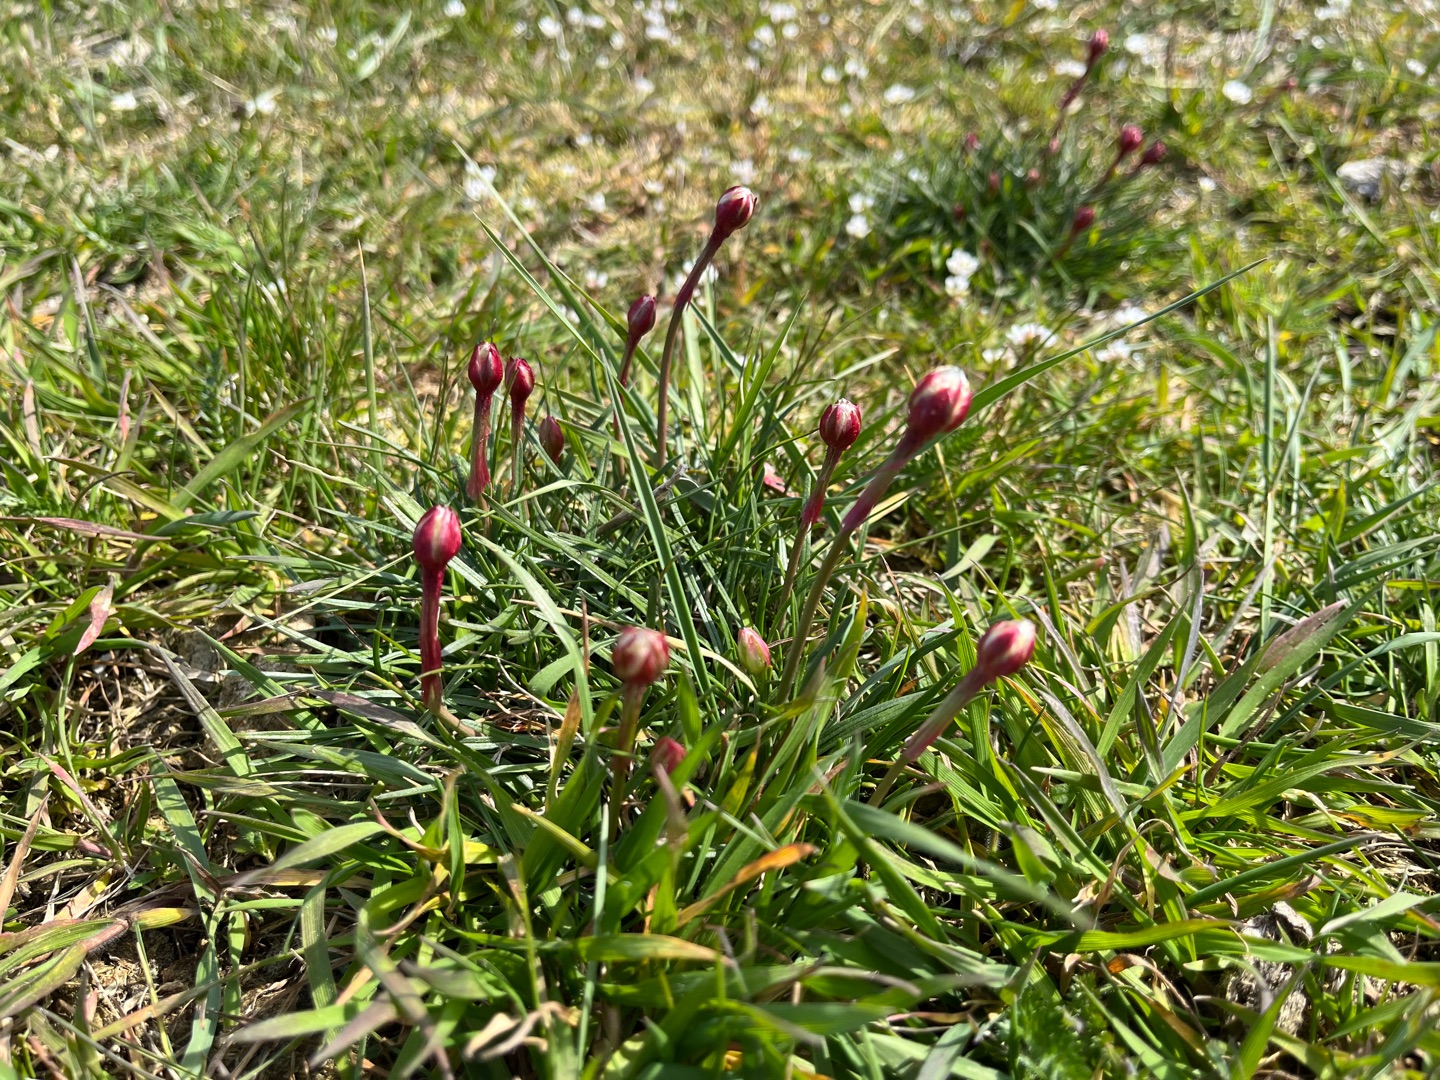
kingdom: Plantae
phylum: Tracheophyta
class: Magnoliopsida
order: Caryophyllales
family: Plumbaginaceae
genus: Armeria
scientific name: Armeria maritima
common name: Engelskgræs
